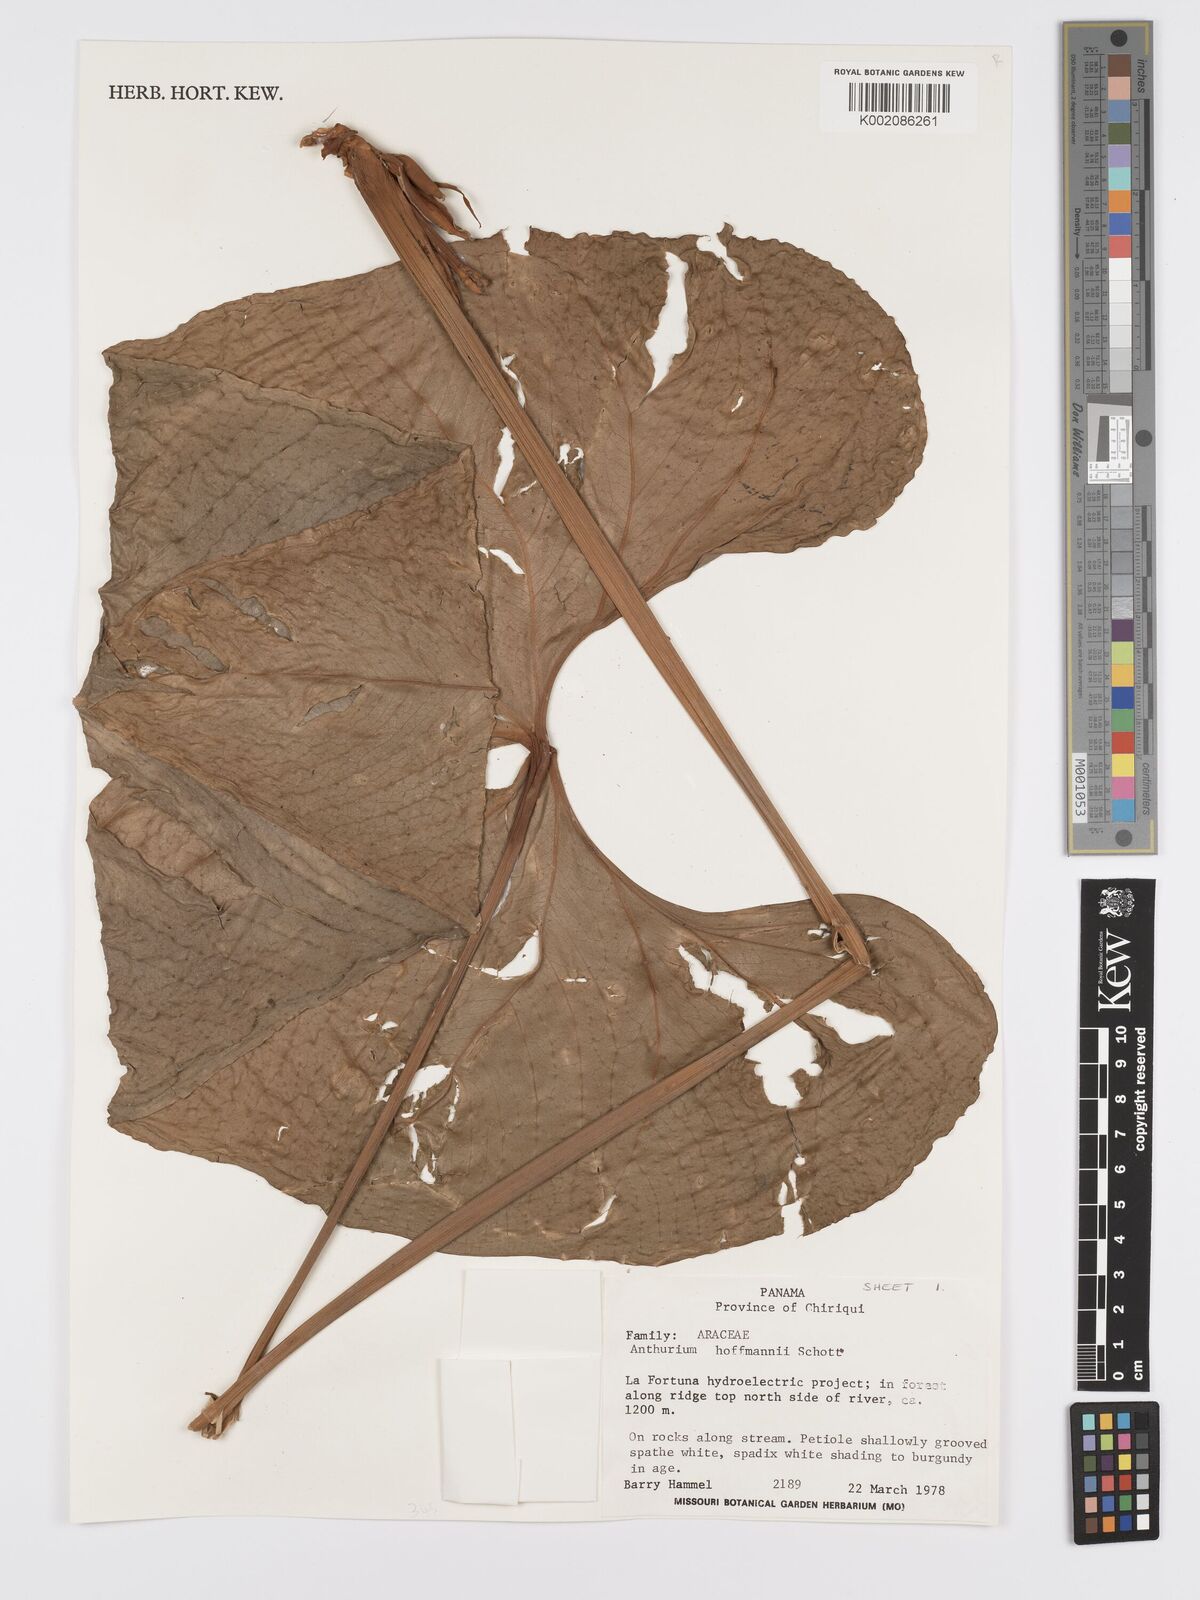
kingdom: Plantae
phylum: Tracheophyta
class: Liliopsida
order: Alismatales
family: Araceae
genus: Anthurium
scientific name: Anthurium hoffmannii
